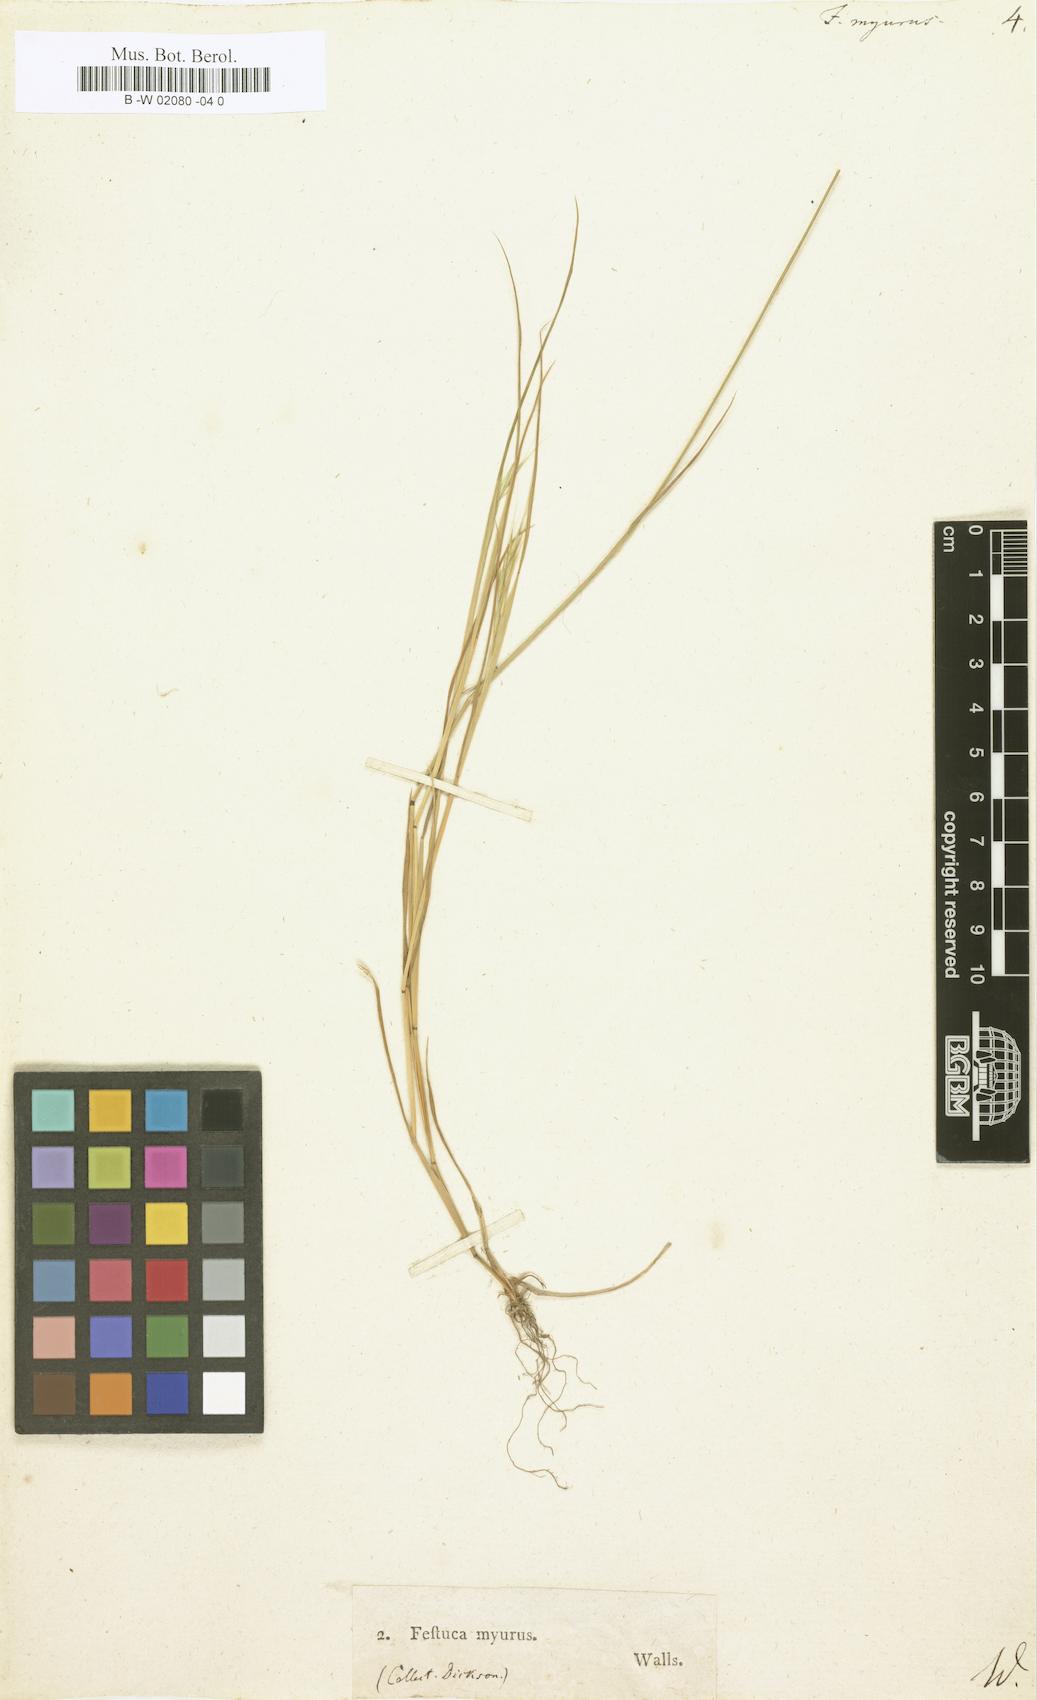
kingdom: Plantae
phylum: Tracheophyta
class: Liliopsida
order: Poales
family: Poaceae
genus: Festuca
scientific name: Festuca myurus
